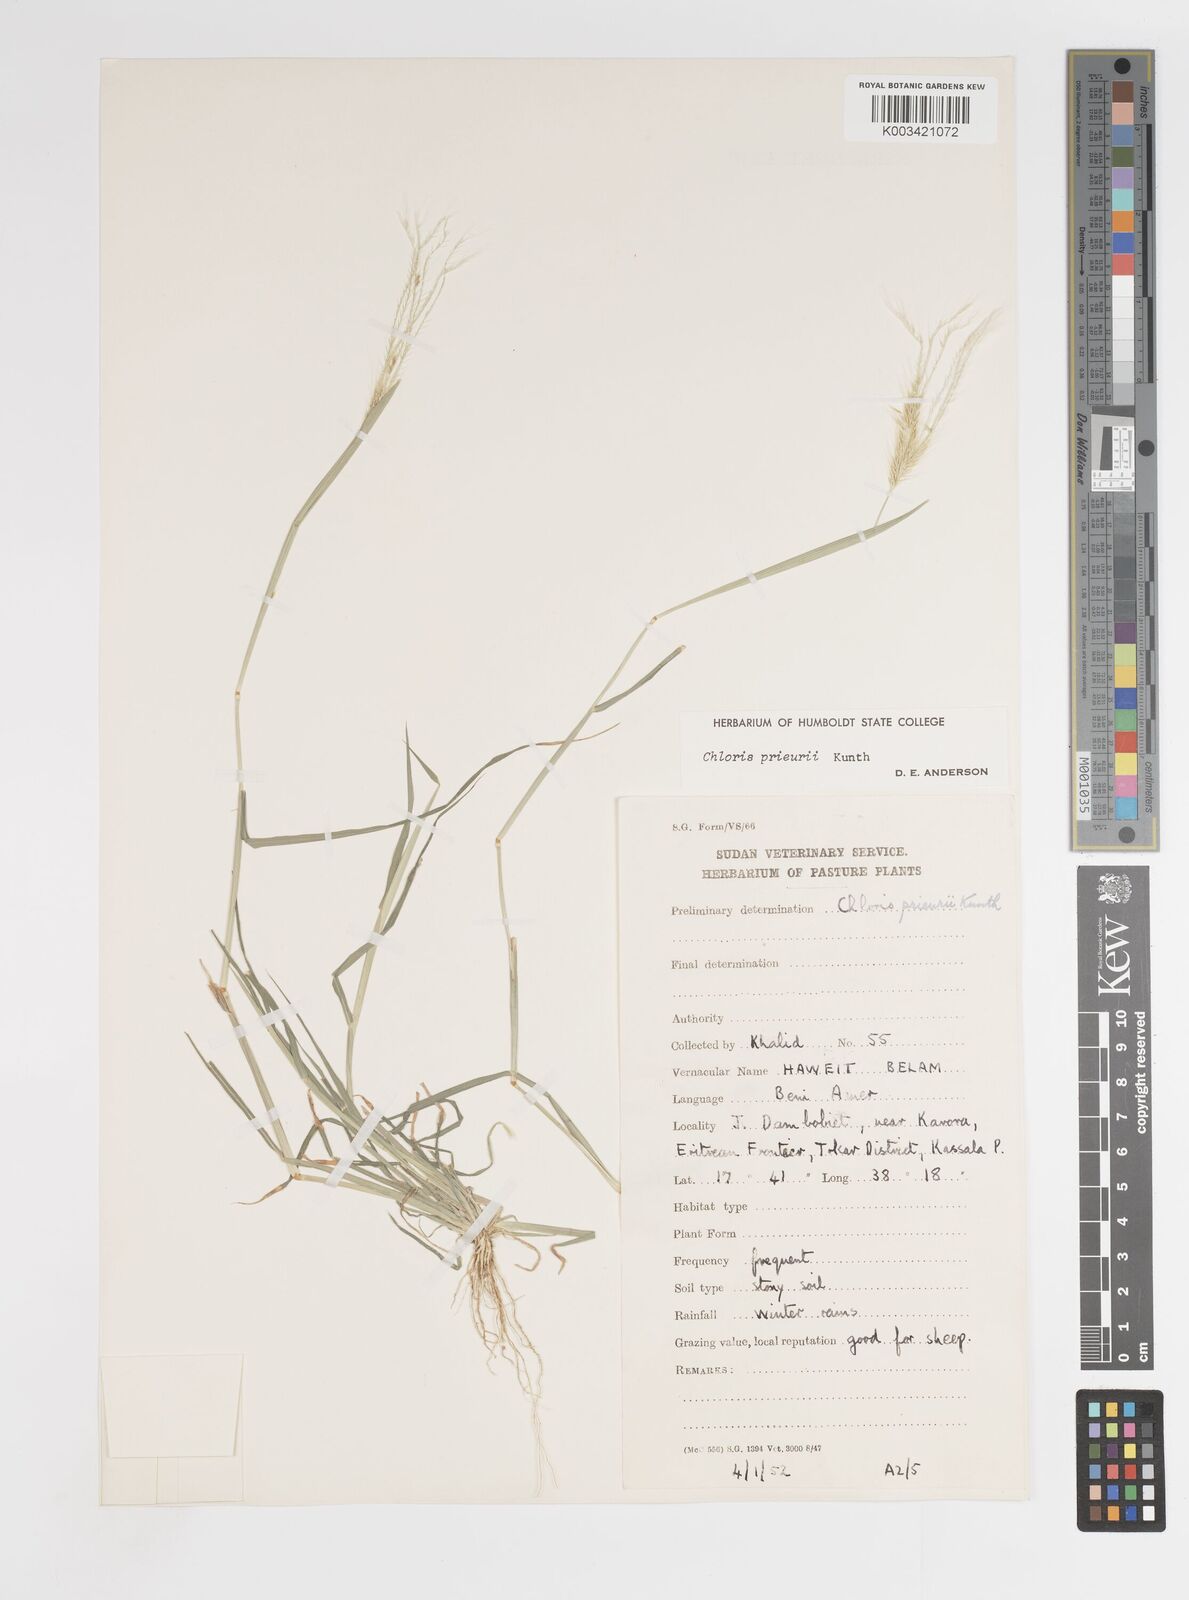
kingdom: Plantae
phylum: Tracheophyta
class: Liliopsida
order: Poales
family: Poaceae
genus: Enteropogon
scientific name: Enteropogon prieurii
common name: Prieur's umbrellagrass
